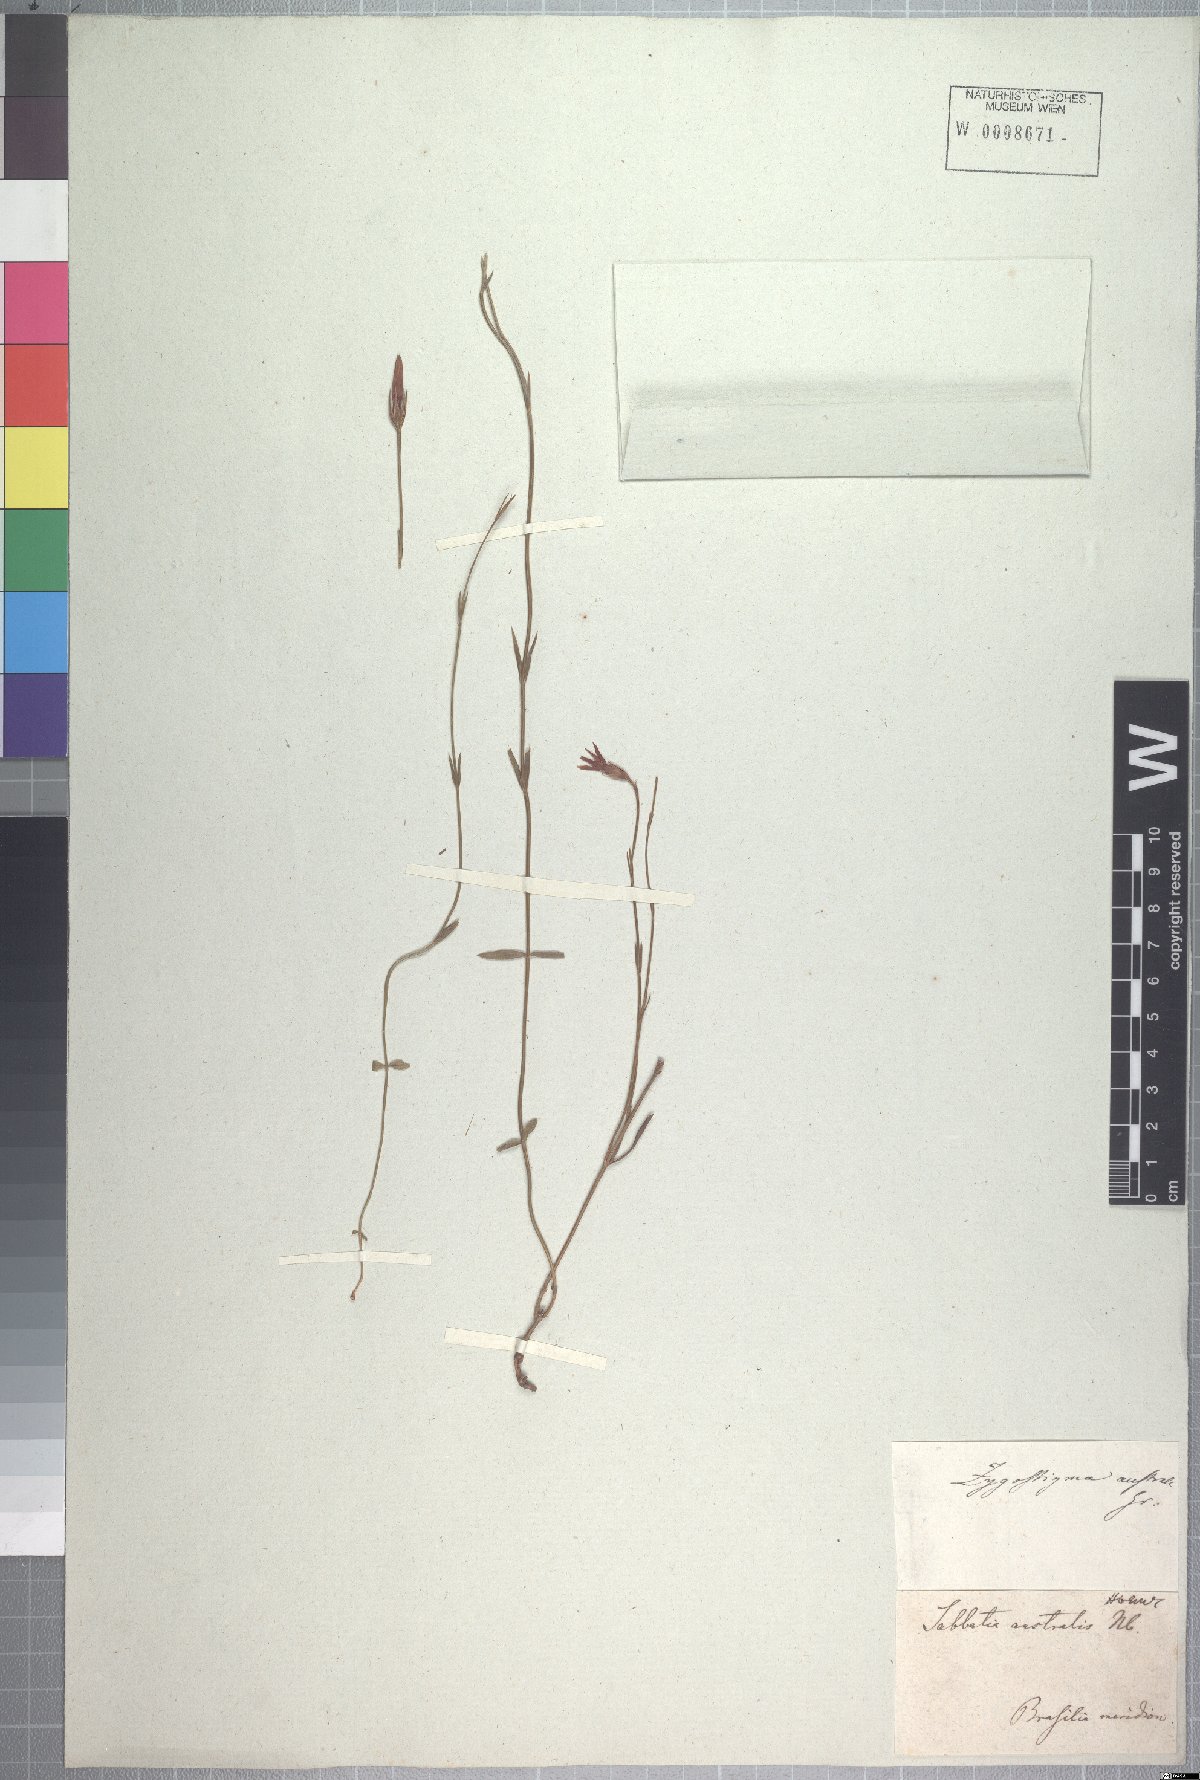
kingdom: Plantae
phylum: Tracheophyta
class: Magnoliopsida
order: Gentianales
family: Gentianaceae
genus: Zygostigma
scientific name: Zygostigma australe
